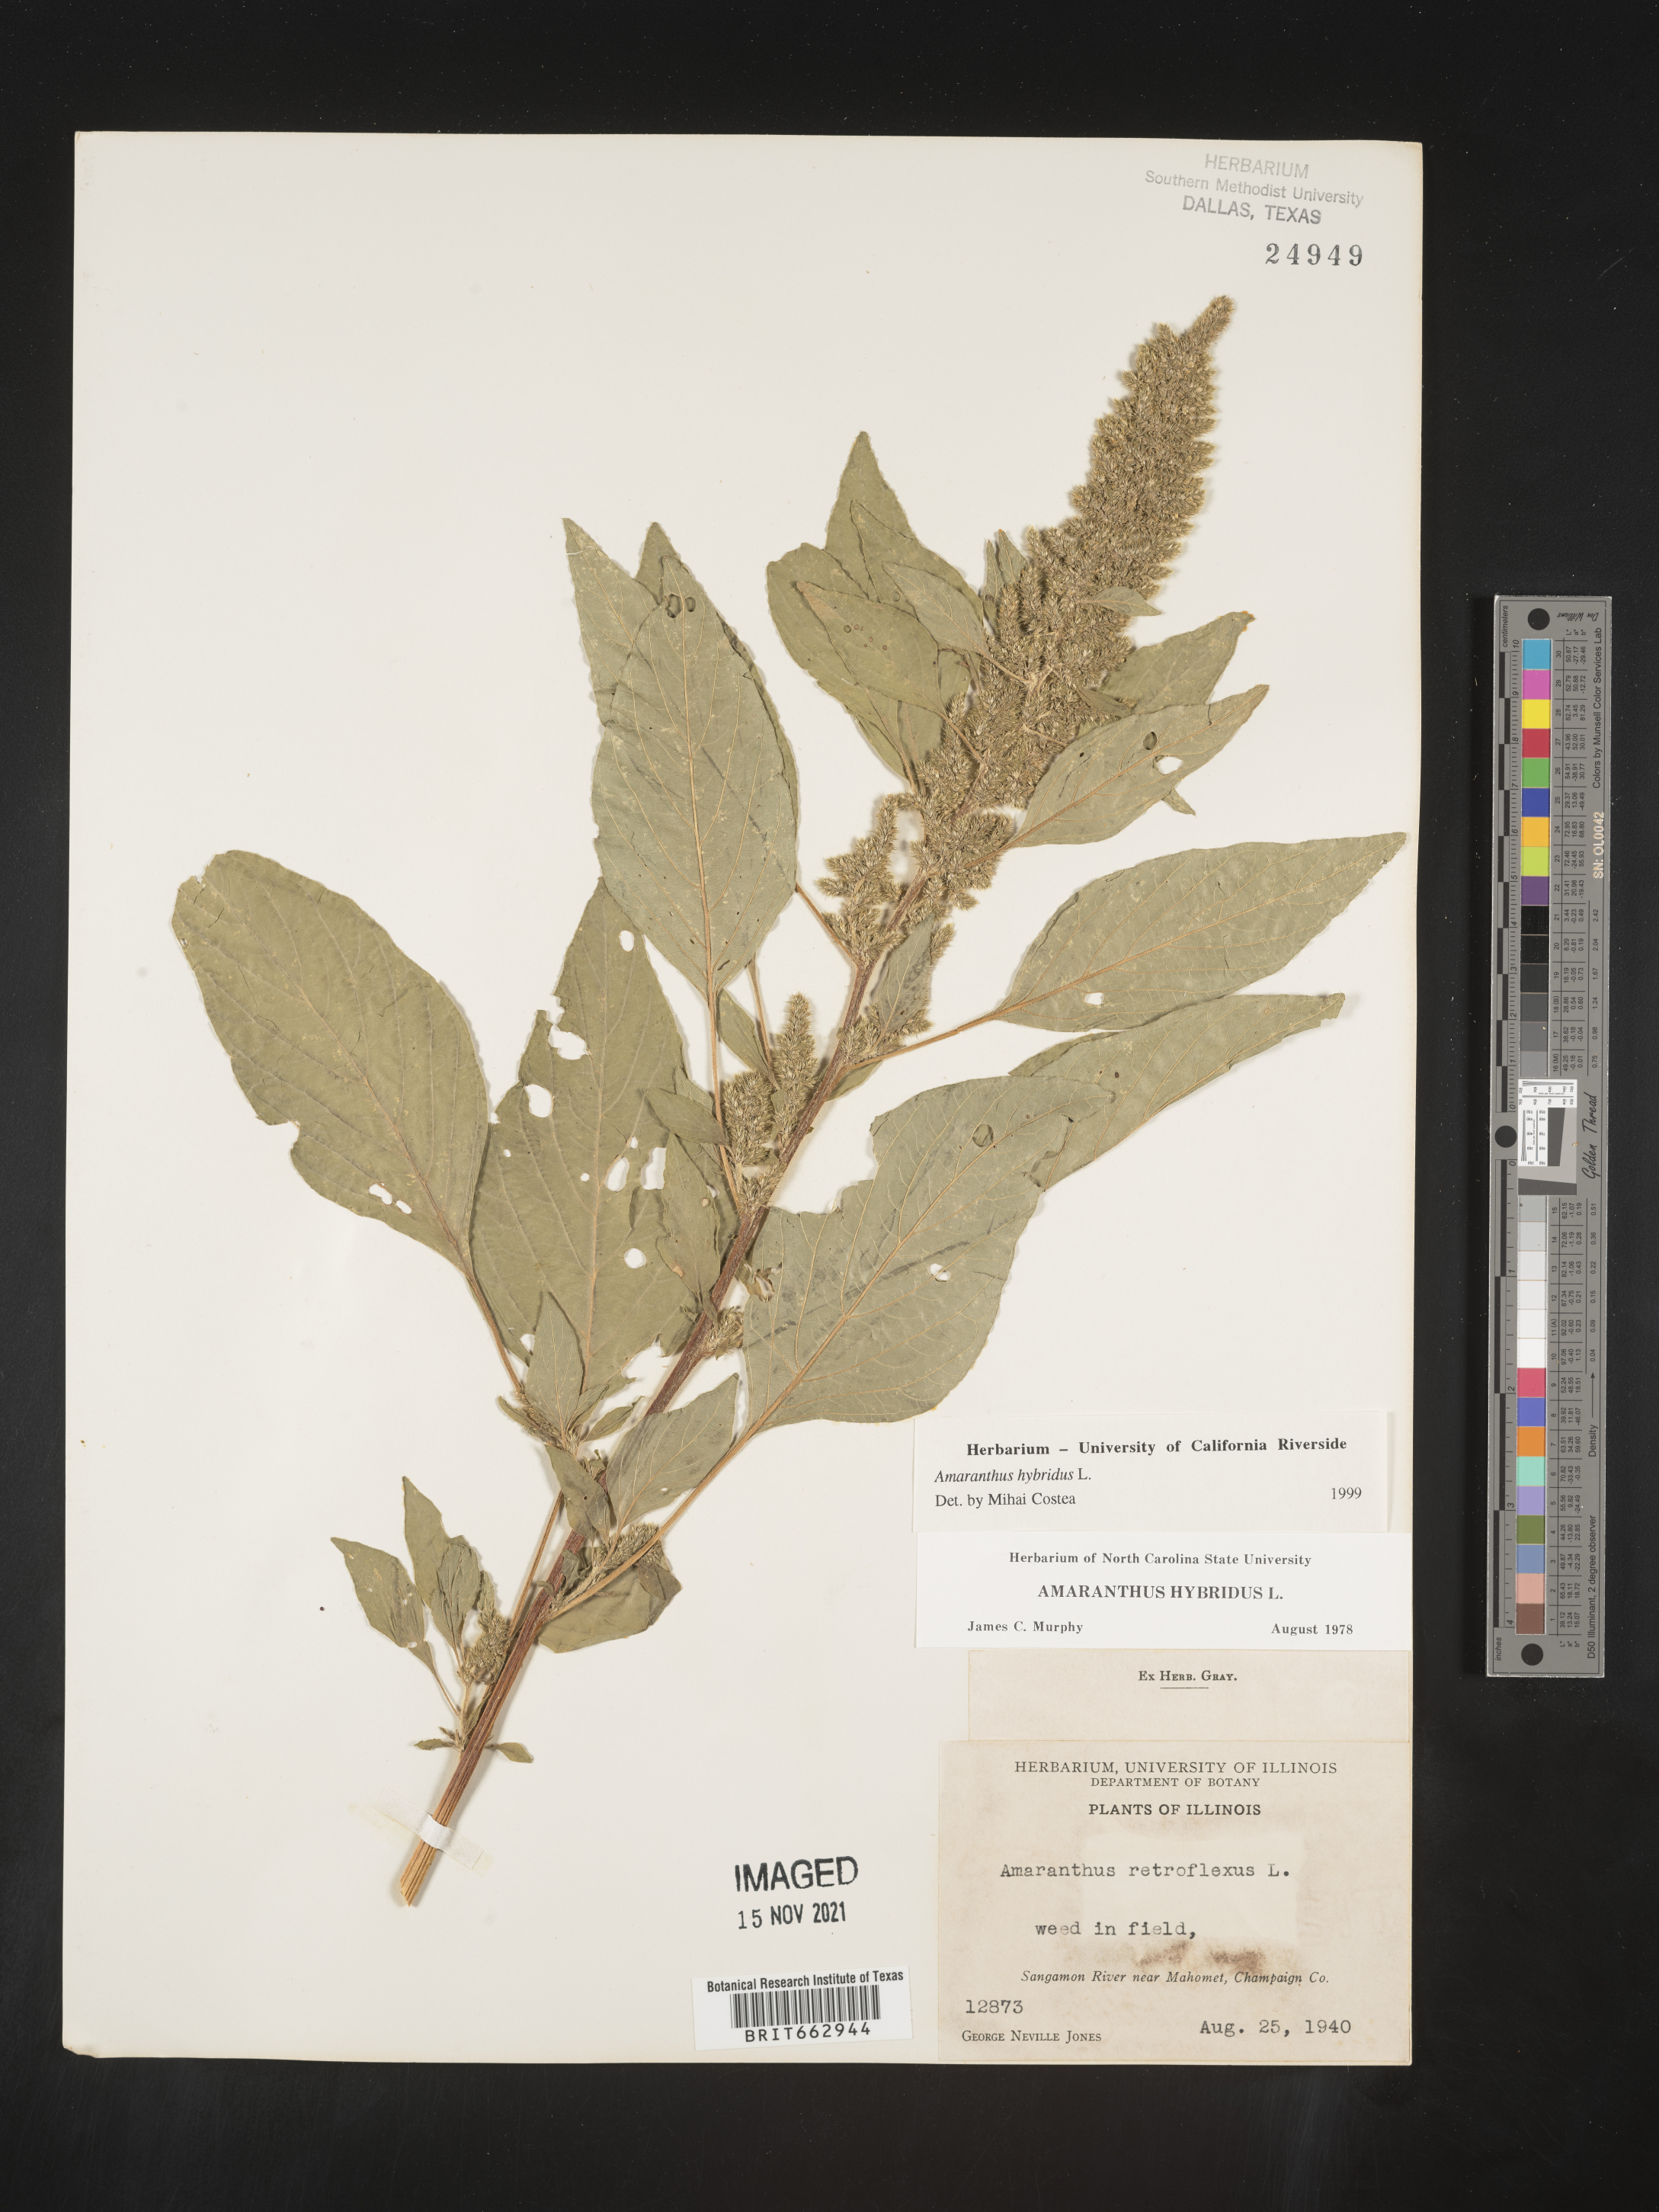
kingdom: Plantae
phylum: Tracheophyta
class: Magnoliopsida
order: Caryophyllales
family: Amaranthaceae
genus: Amaranthus
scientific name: Amaranthus hybridus
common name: Green amaranth
